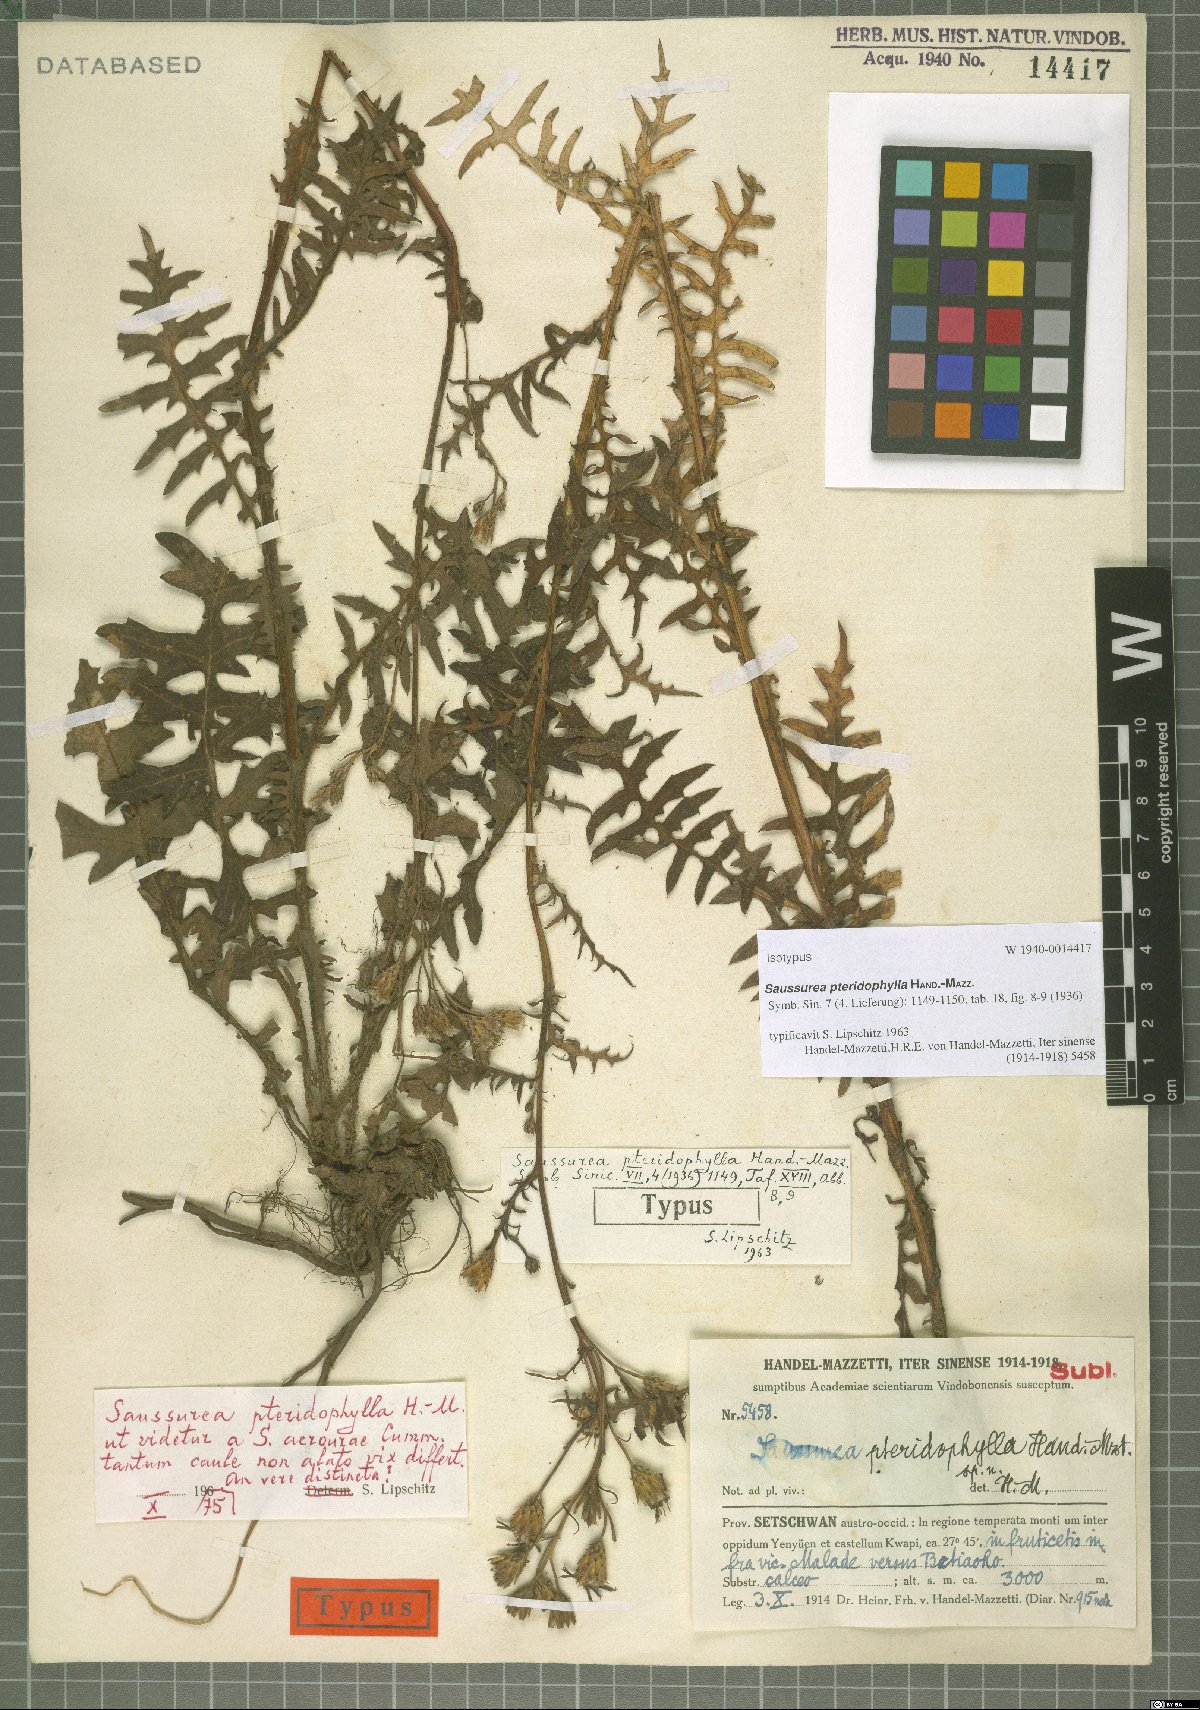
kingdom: Plantae
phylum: Tracheophyta
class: Magnoliopsida
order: Asterales
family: Asteraceae
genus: Saussurea
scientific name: Saussurea pteridophylla
